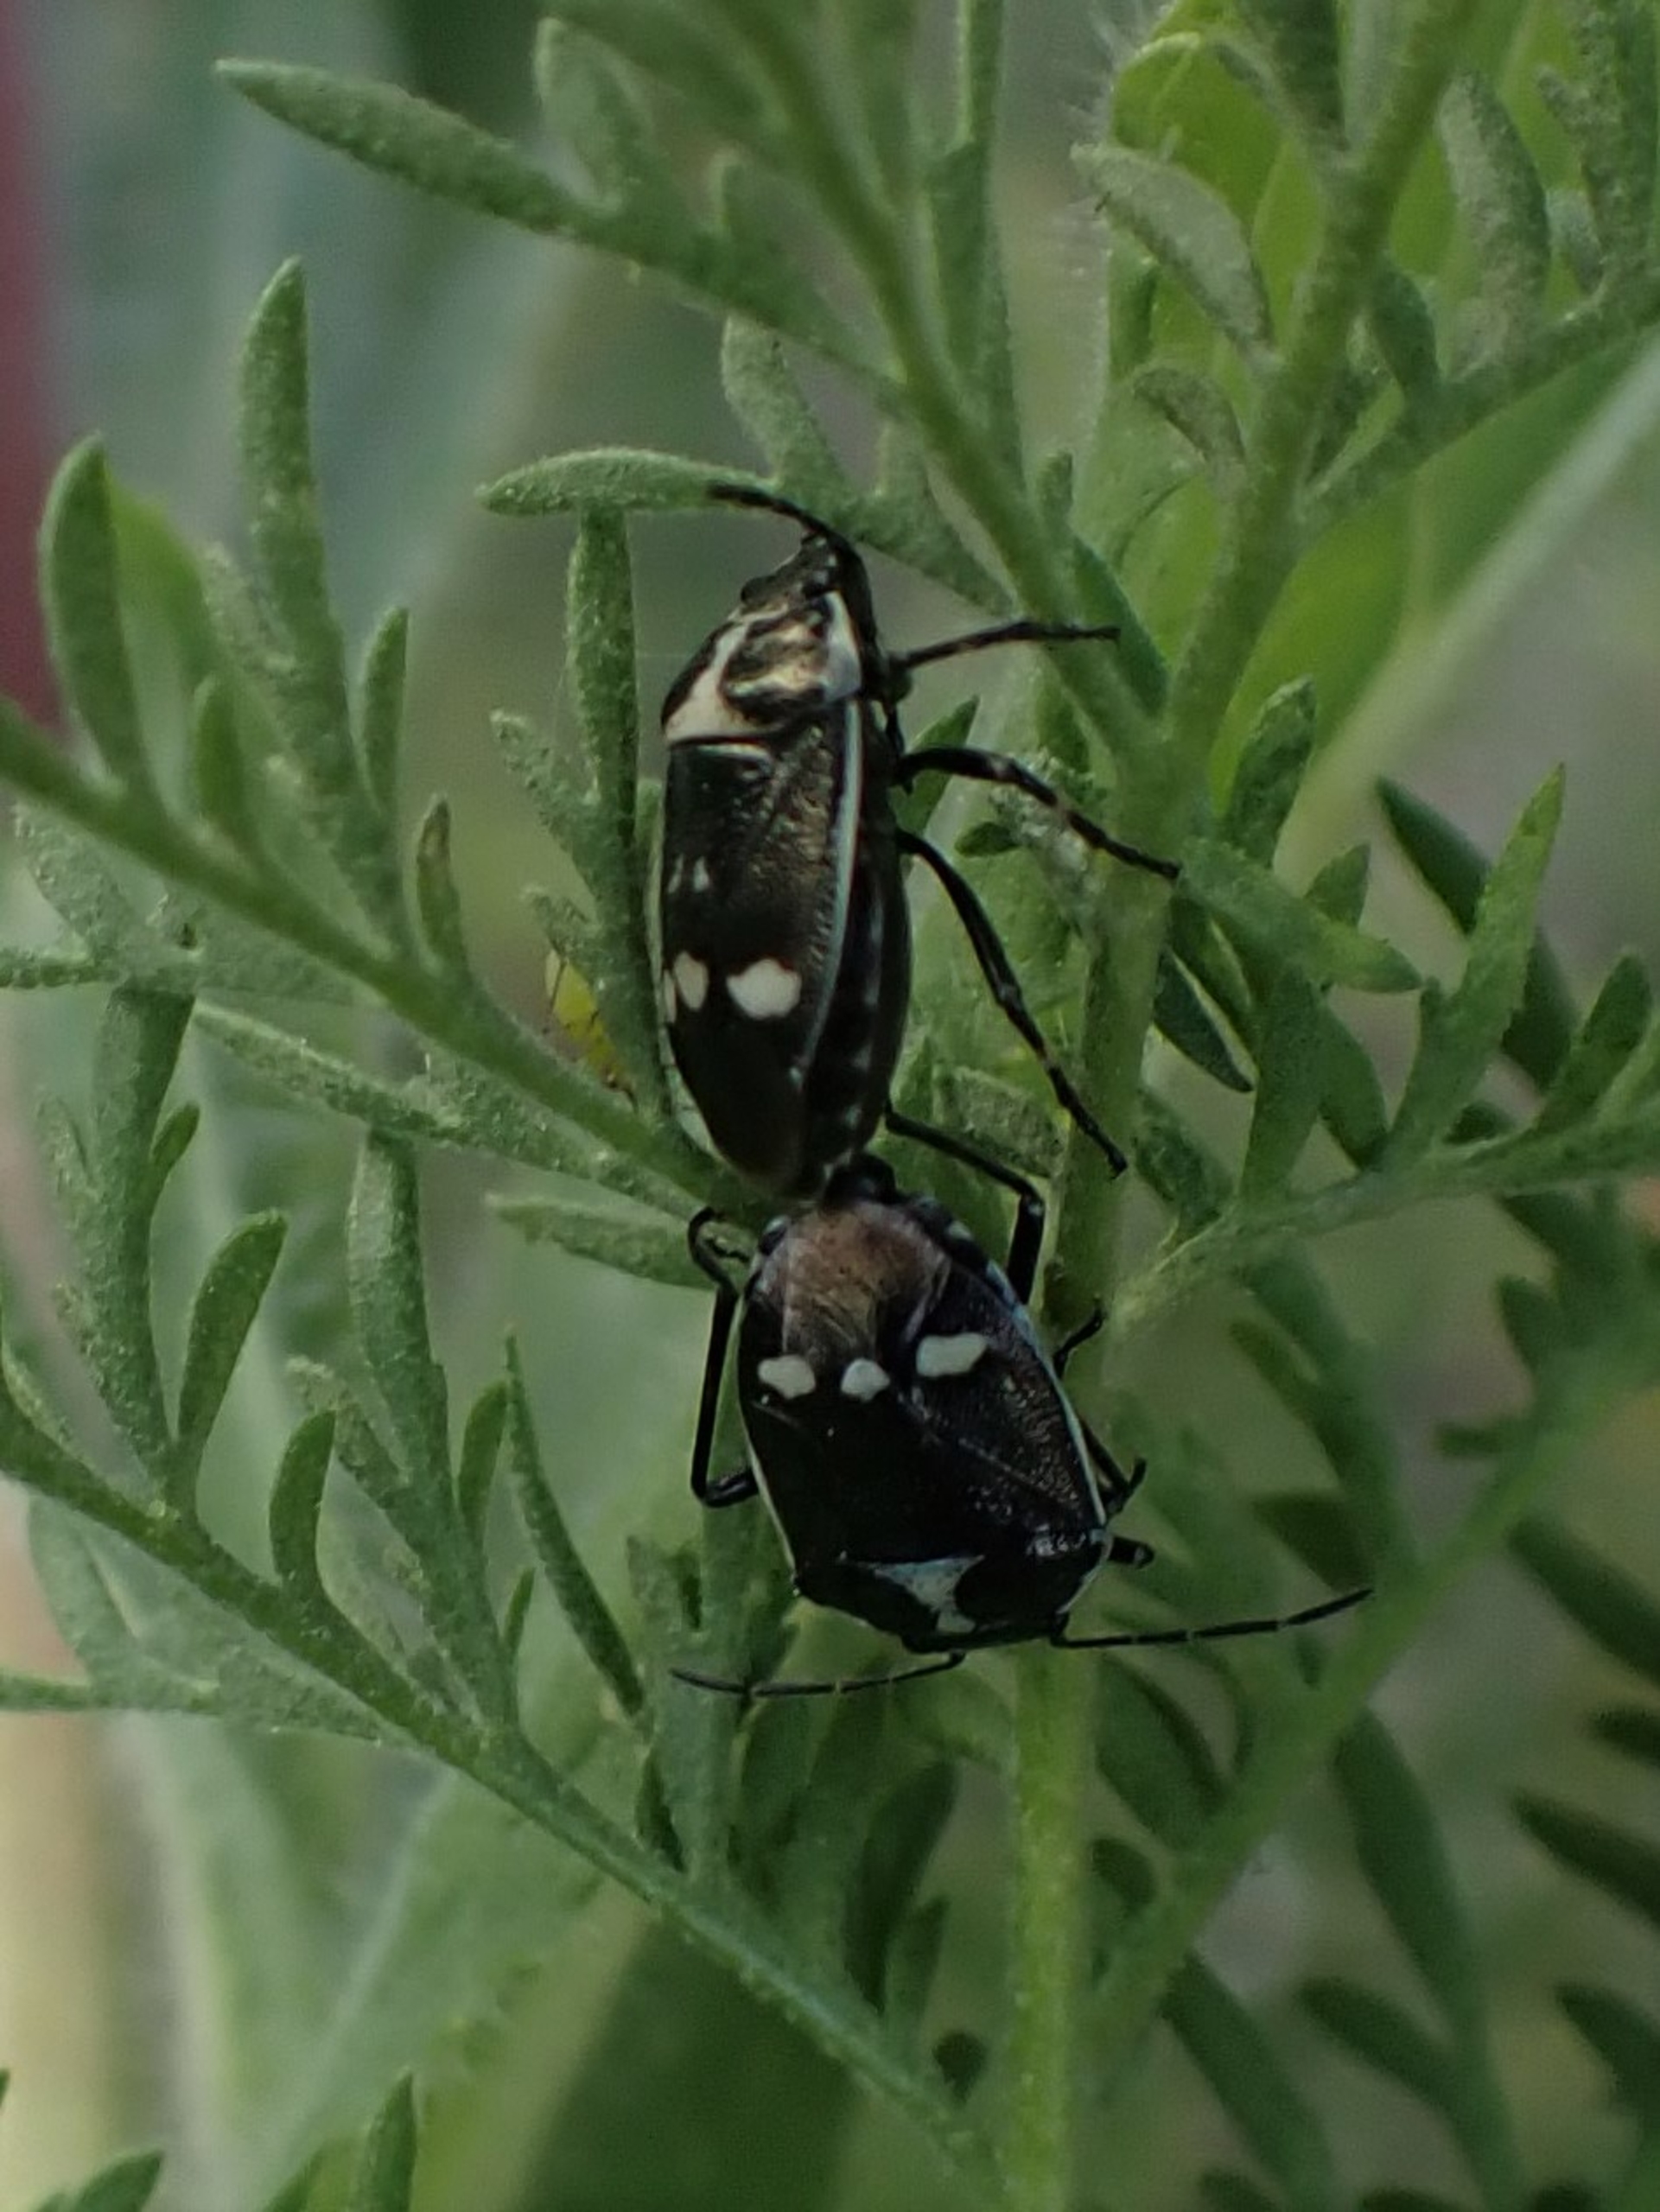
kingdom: Animalia
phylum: Arthropoda
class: Insecta
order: Hemiptera
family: Pentatomidae
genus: Eurydema
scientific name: Eurydema oleracea
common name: Almindelig kåltæge
